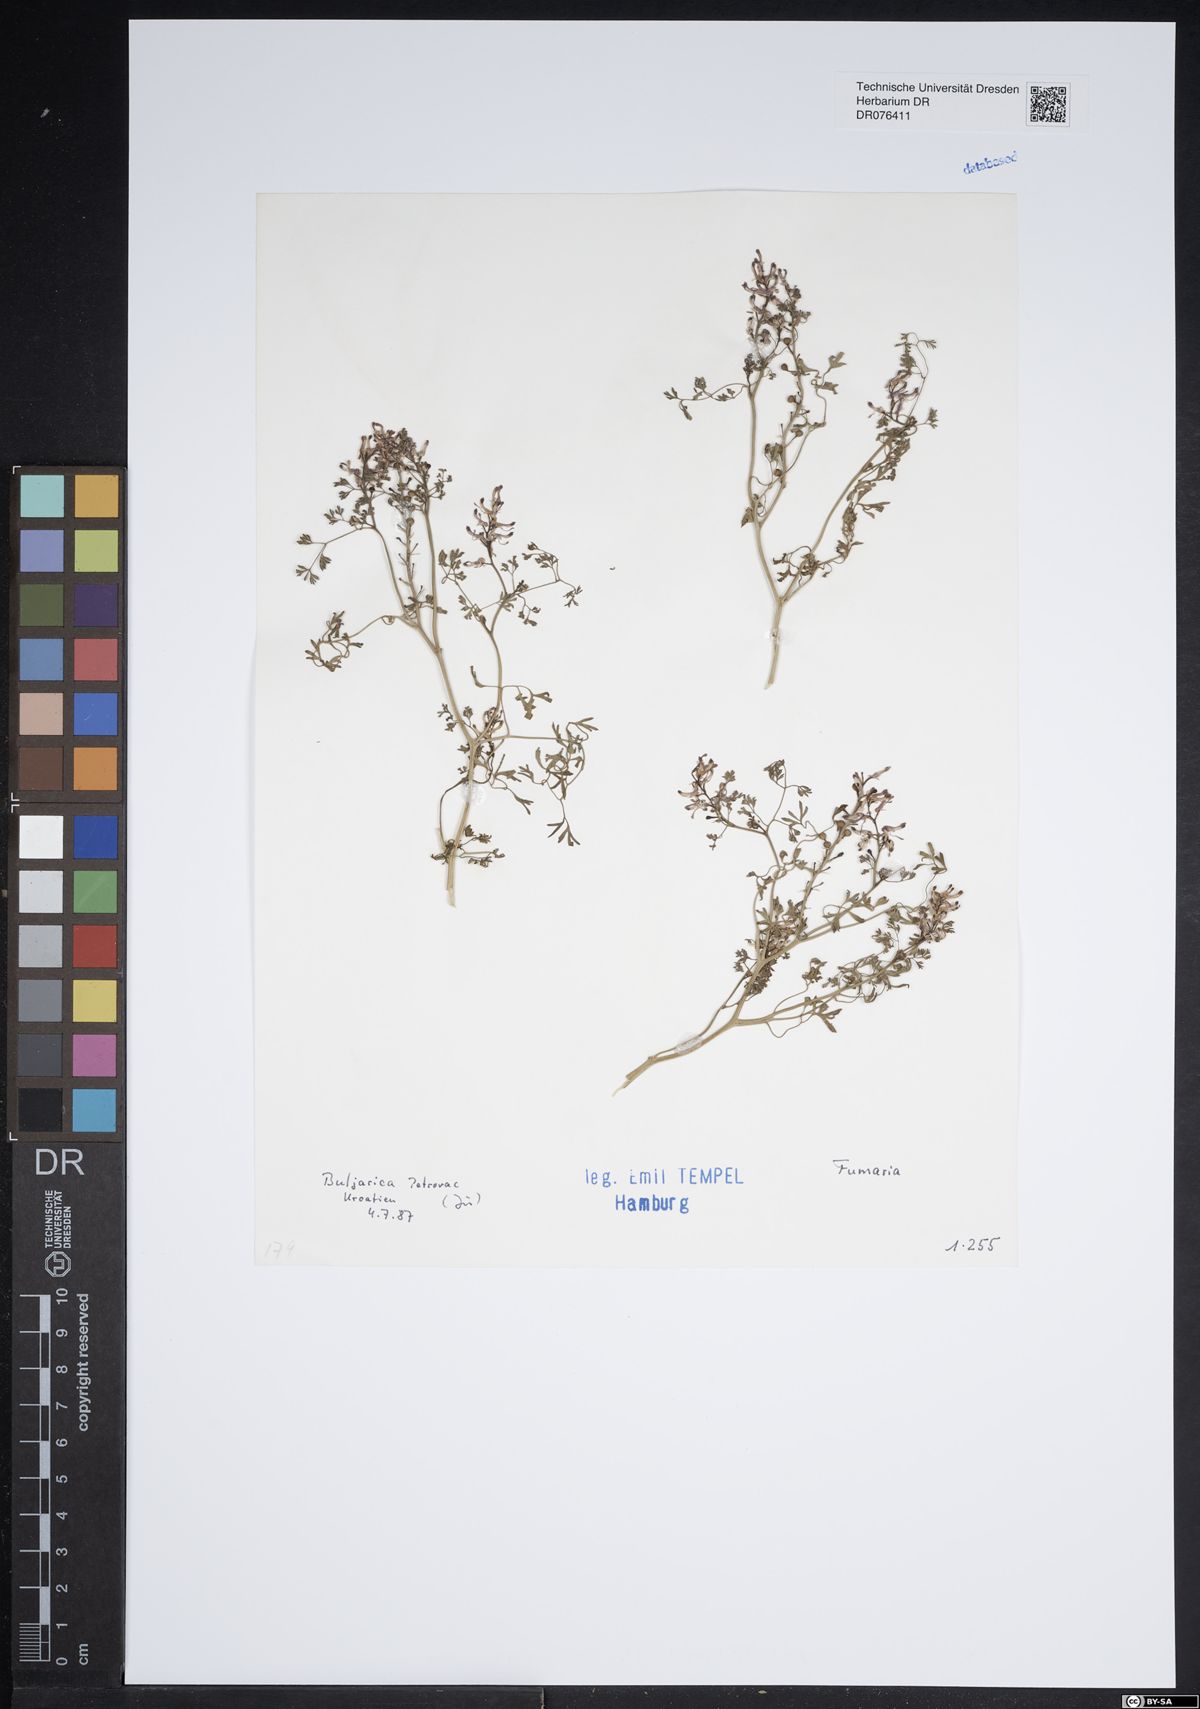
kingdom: Plantae
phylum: Tracheophyta
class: Magnoliopsida
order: Ranunculales
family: Papaveraceae
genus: Fumaria
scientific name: Fumaria
